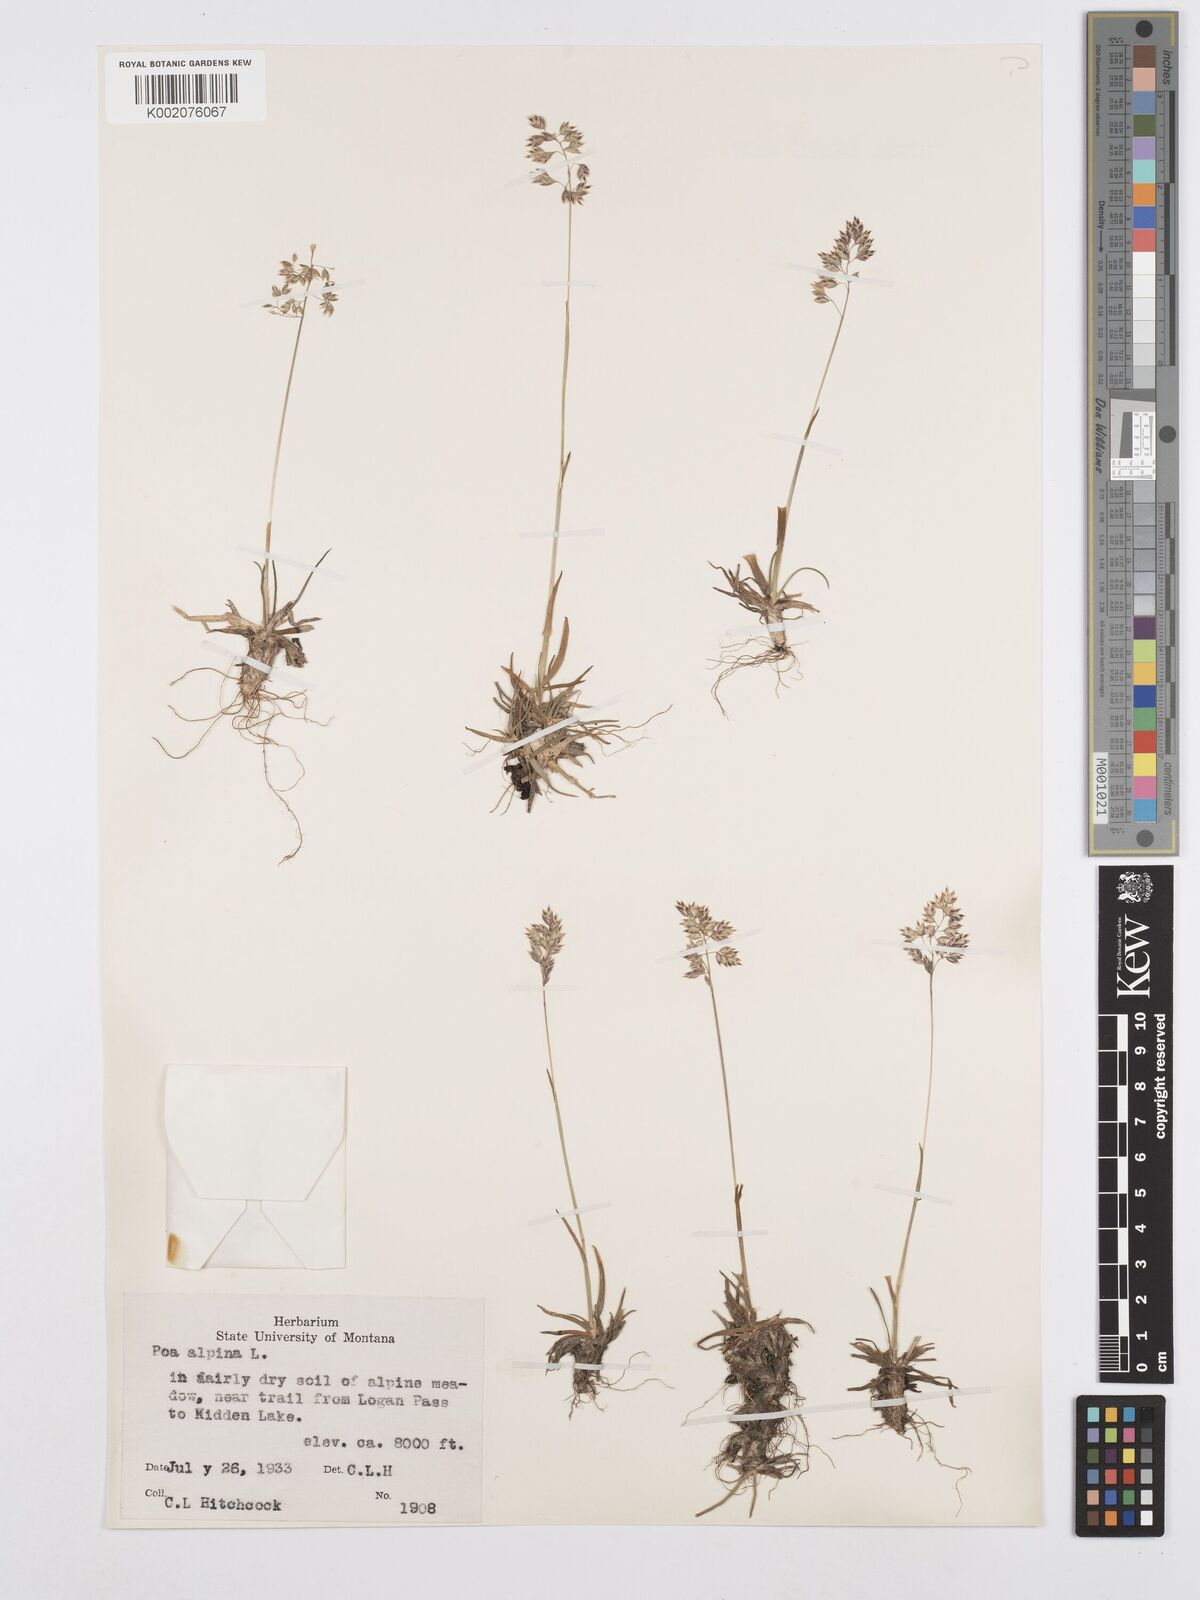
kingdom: Plantae
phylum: Tracheophyta
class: Liliopsida
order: Poales
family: Poaceae
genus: Poa
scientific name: Poa alpina
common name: Alpine bluegrass
